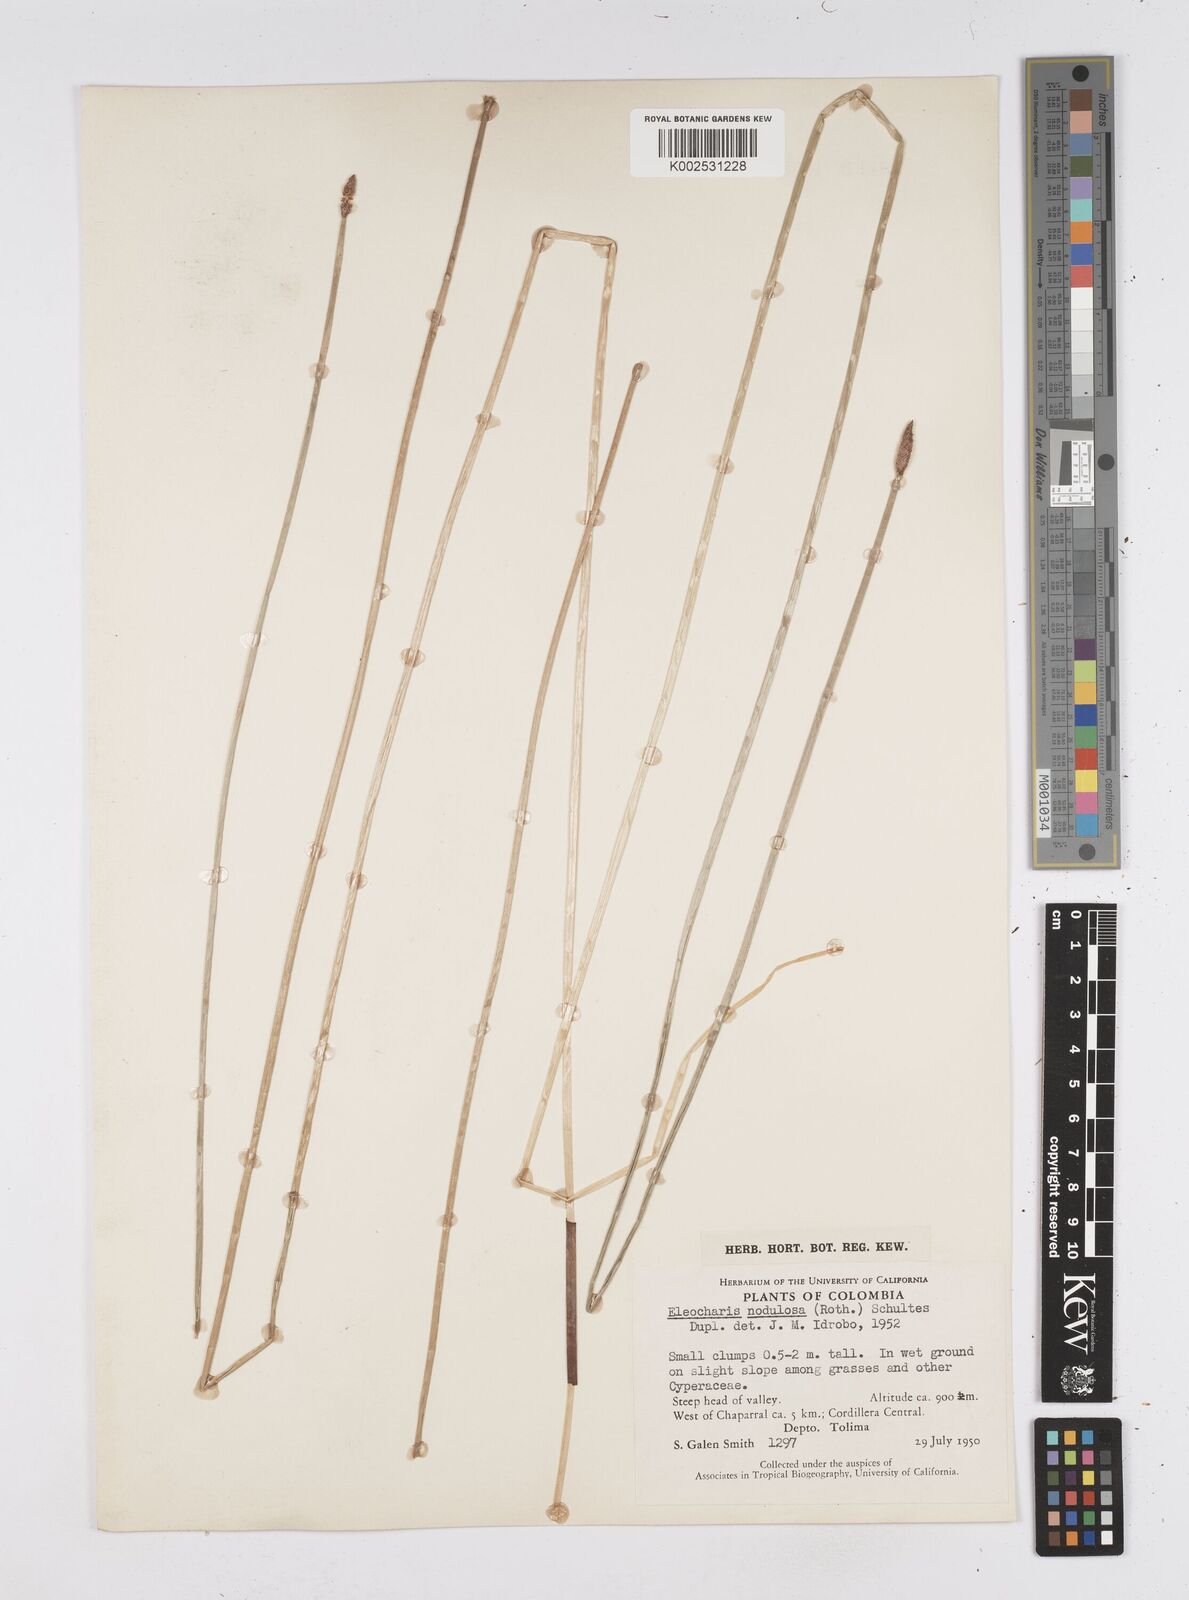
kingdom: Plantae
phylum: Tracheophyta
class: Liliopsida
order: Poales
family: Cyperaceae
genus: Eleocharis
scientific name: Eleocharis montana
